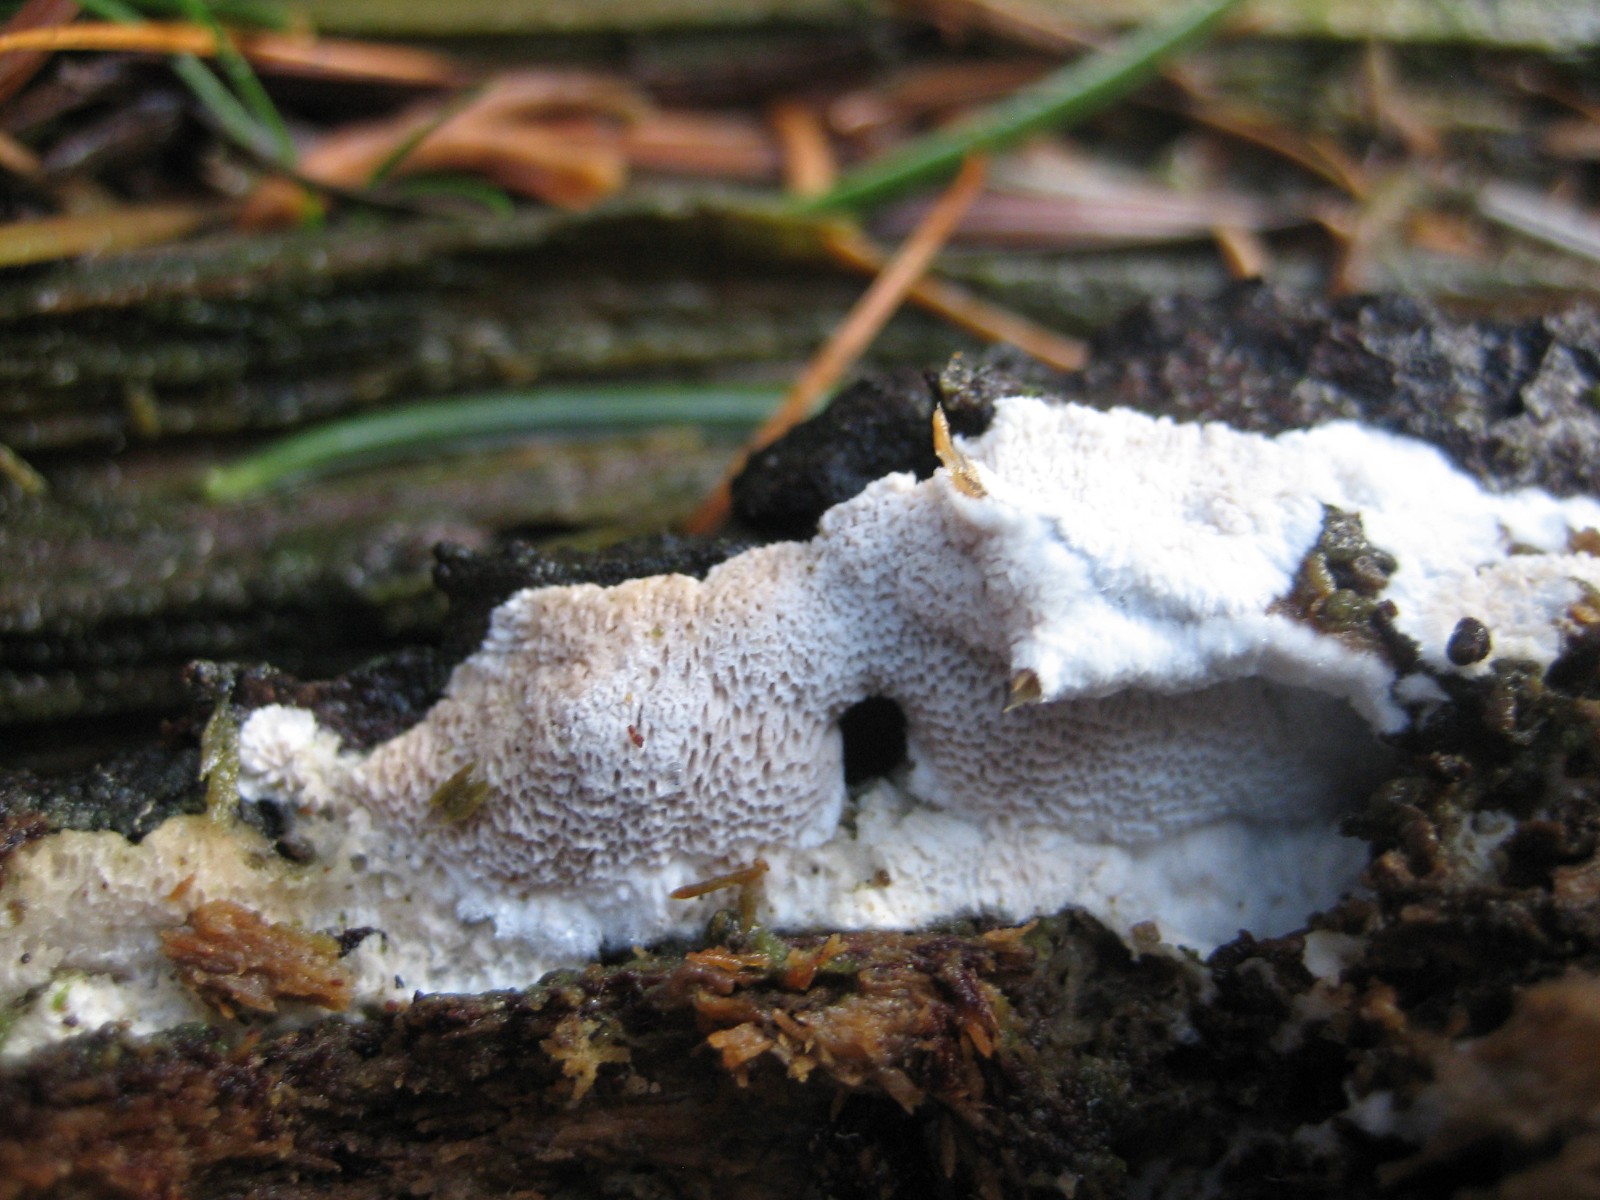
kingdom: Fungi
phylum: Basidiomycota
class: Agaricomycetes
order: Polyporales
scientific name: Polyporales
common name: poresvampordenen
